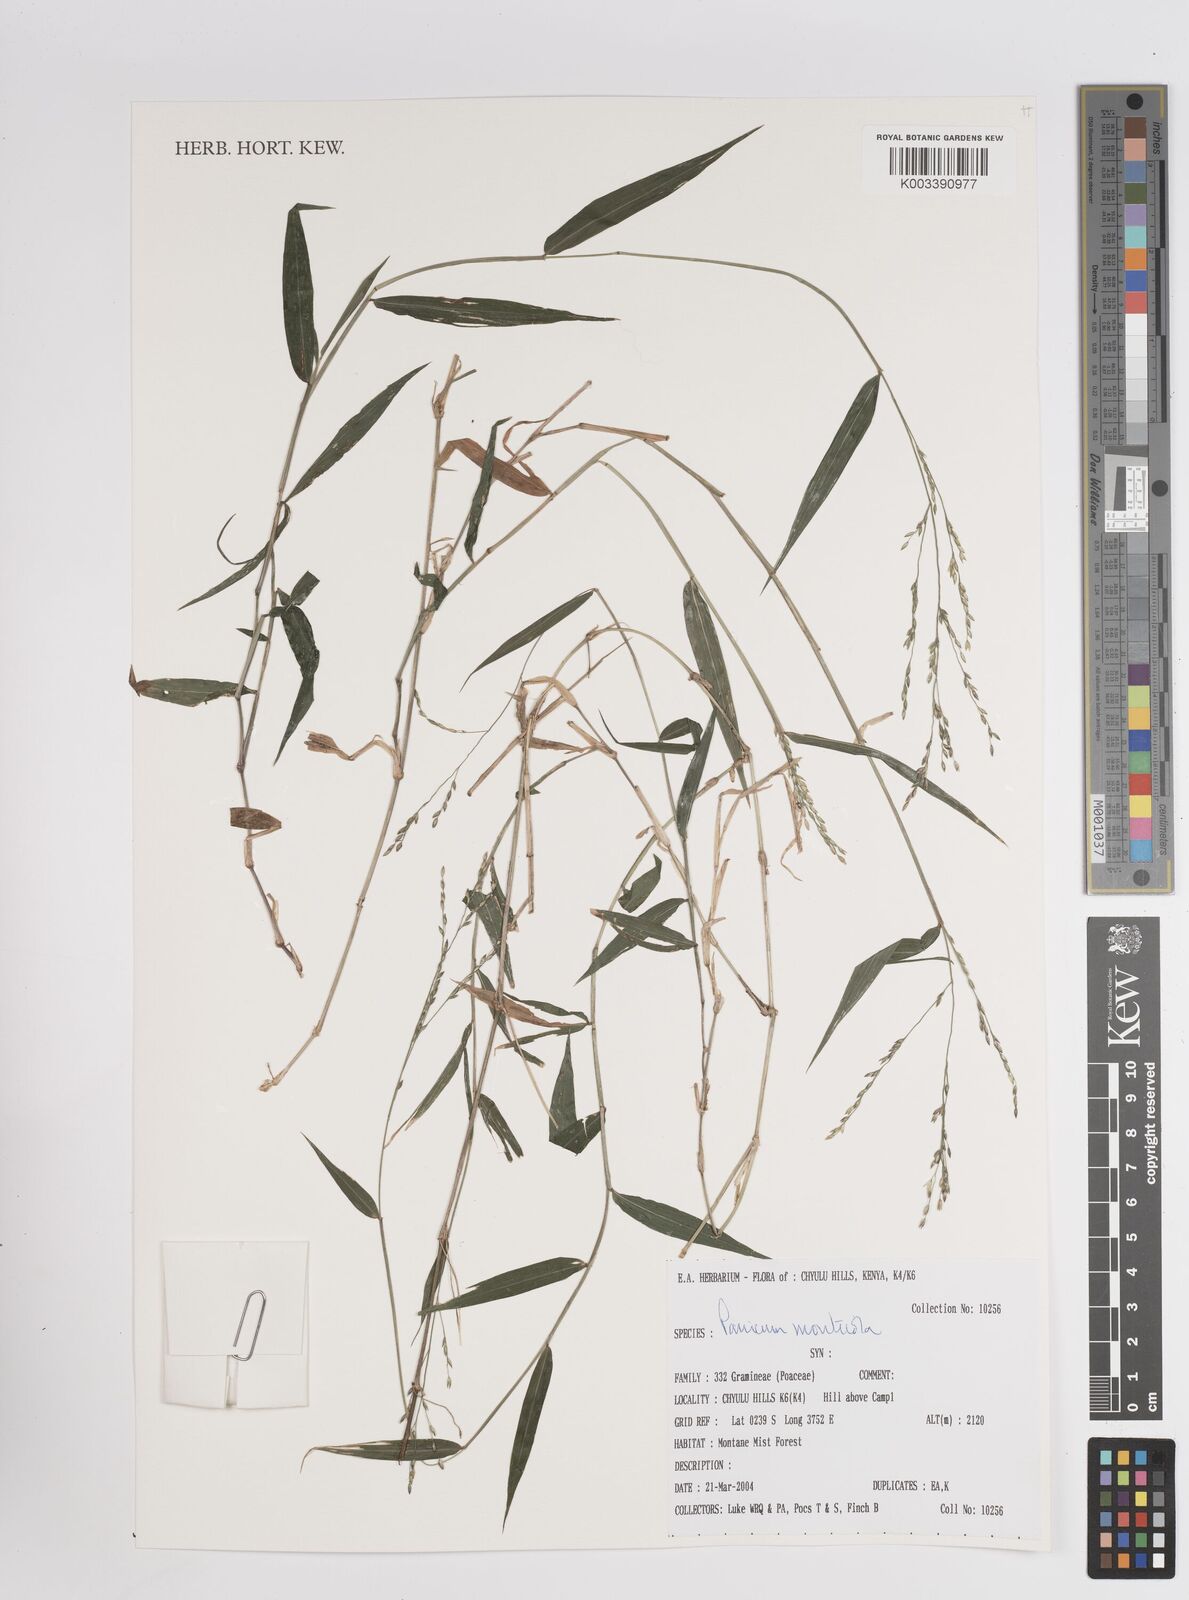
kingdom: Plantae
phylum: Tracheophyta
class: Liliopsida
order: Poales
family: Poaceae
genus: Panicum
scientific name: Panicum monticola
